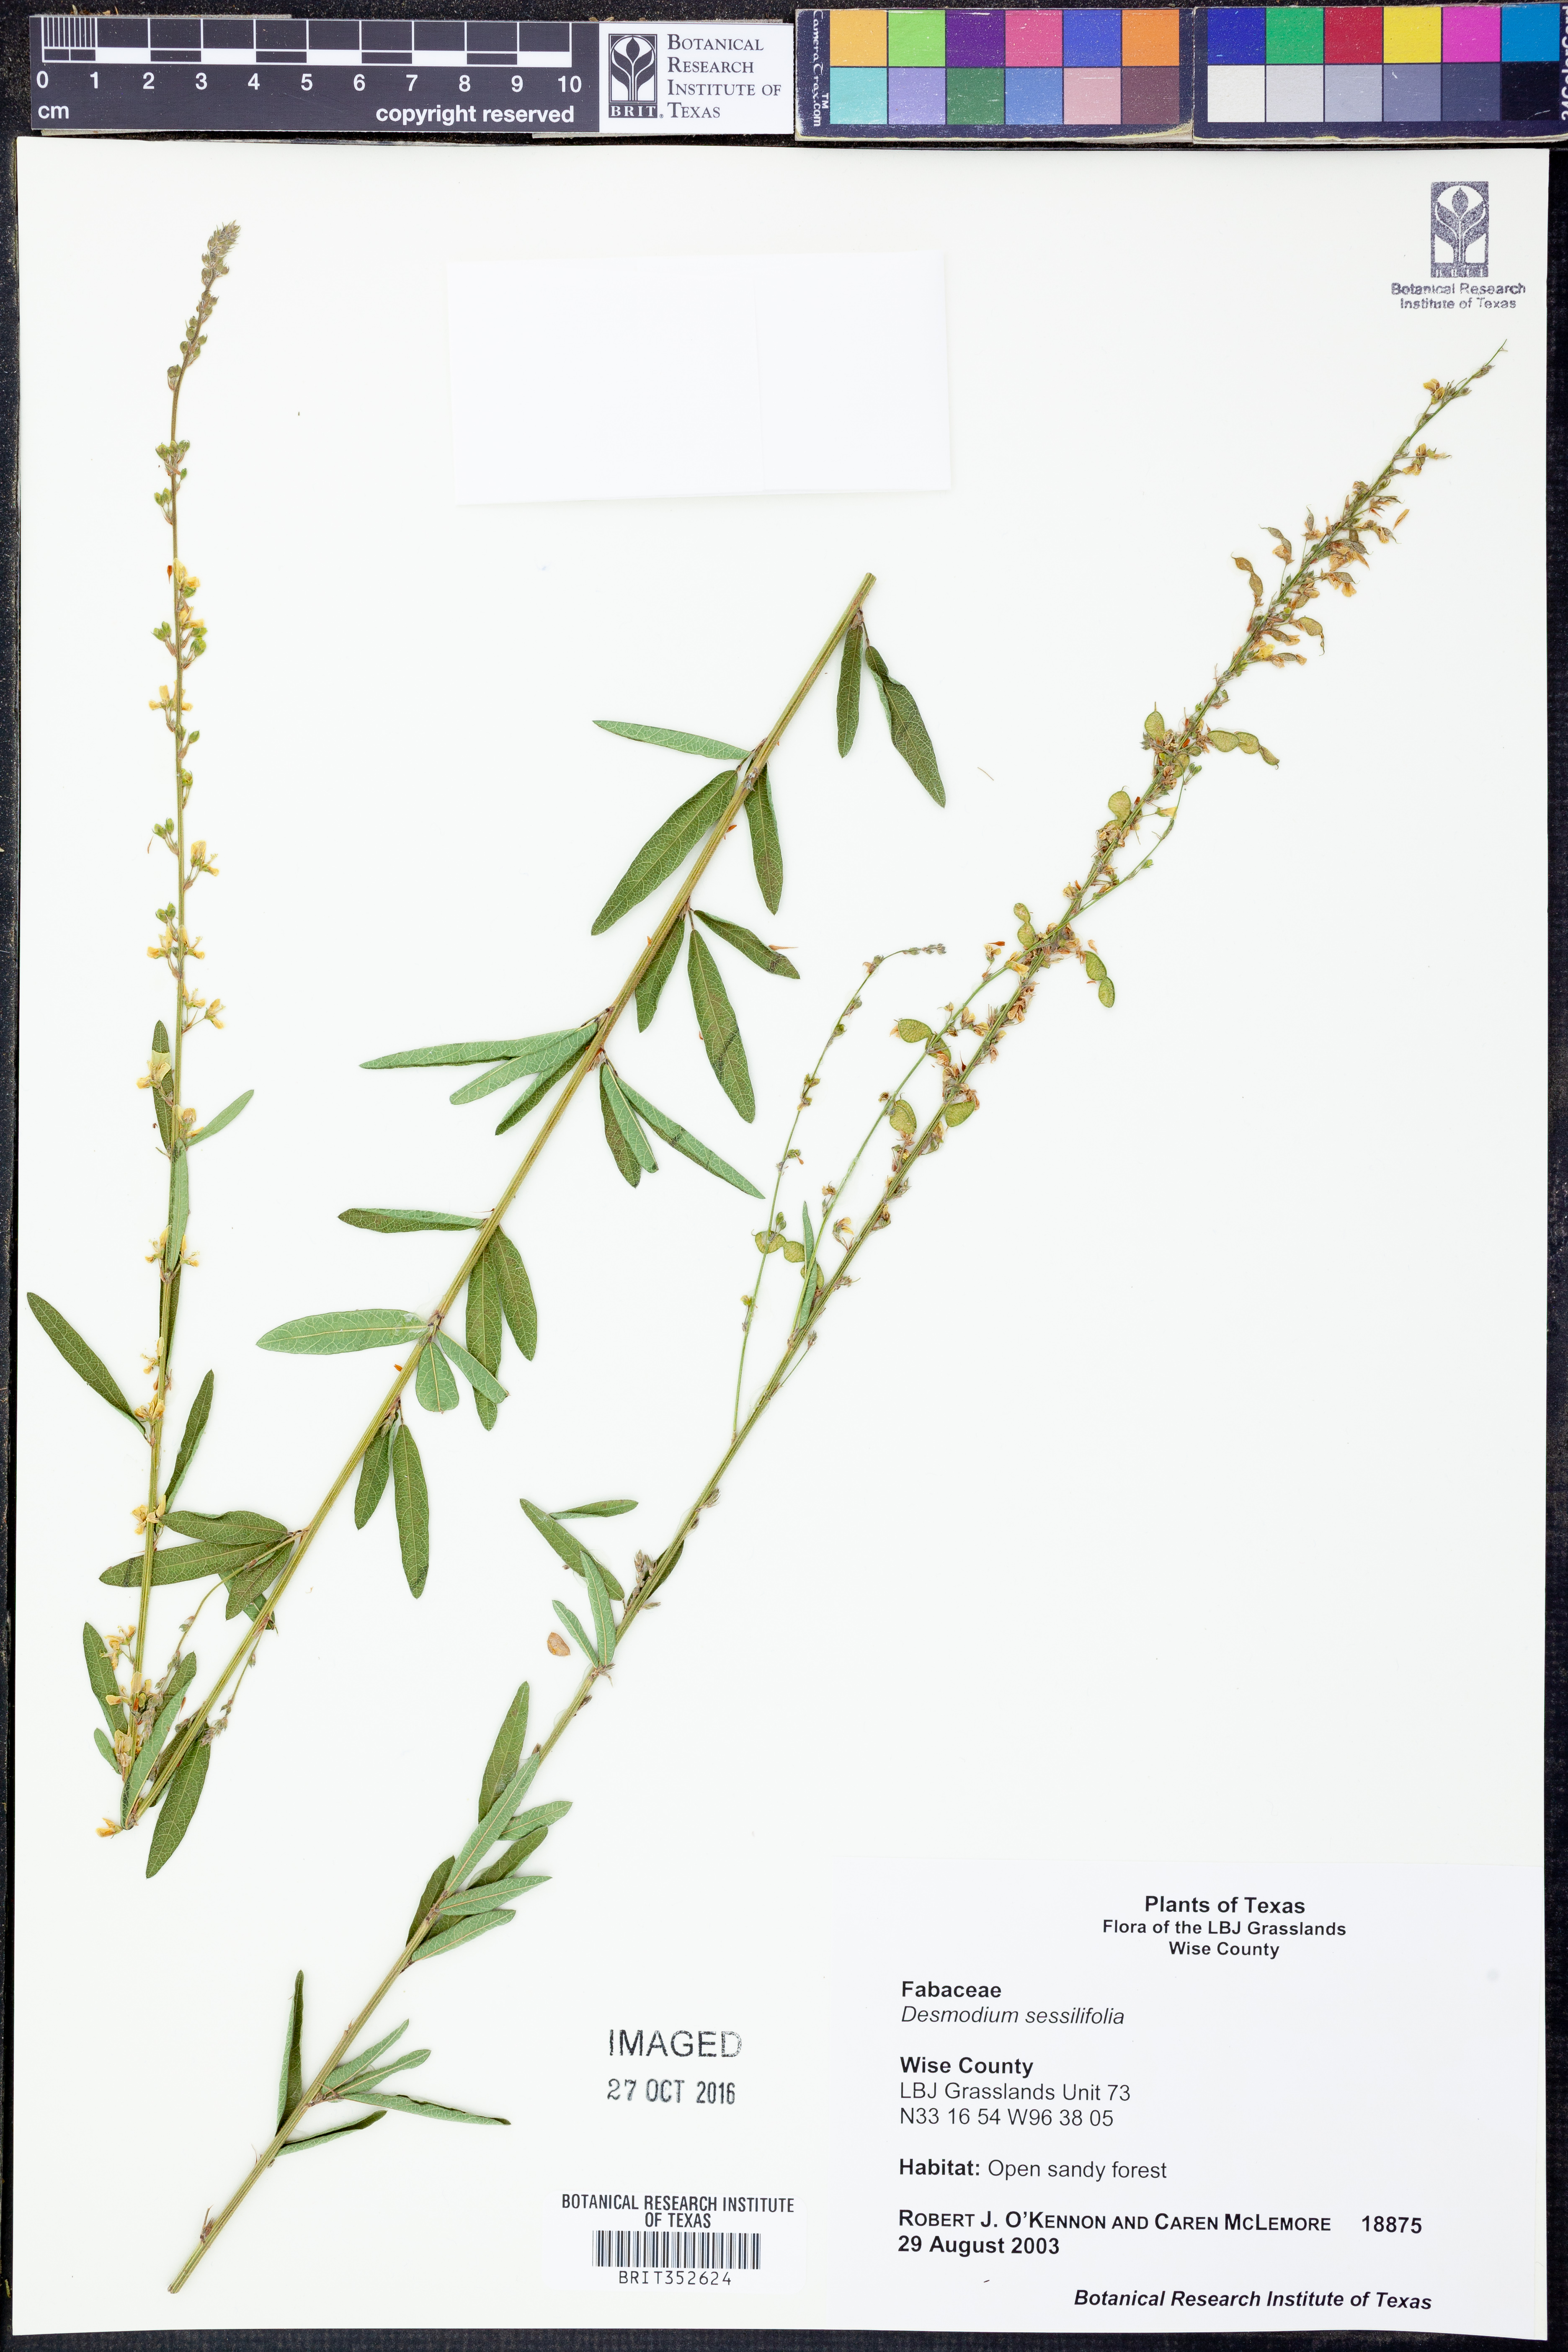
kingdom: Plantae
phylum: Tracheophyta
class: Magnoliopsida
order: Fabales
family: Fabaceae
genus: Desmodium
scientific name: Desmodium sessilifolium
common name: Sessile tick-clover
